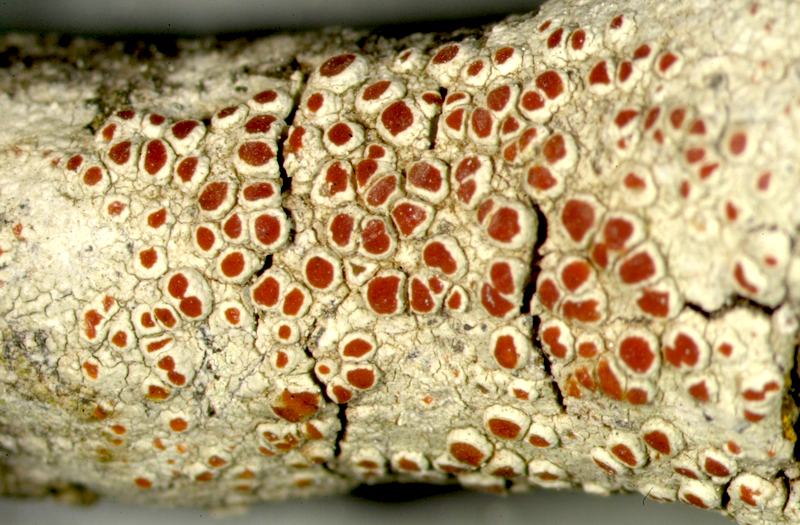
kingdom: Fungi
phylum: Ascomycota
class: Lecanoromycetes
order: Lecanorales
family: Haematommataceae
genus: Haematomma
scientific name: Haematomma
